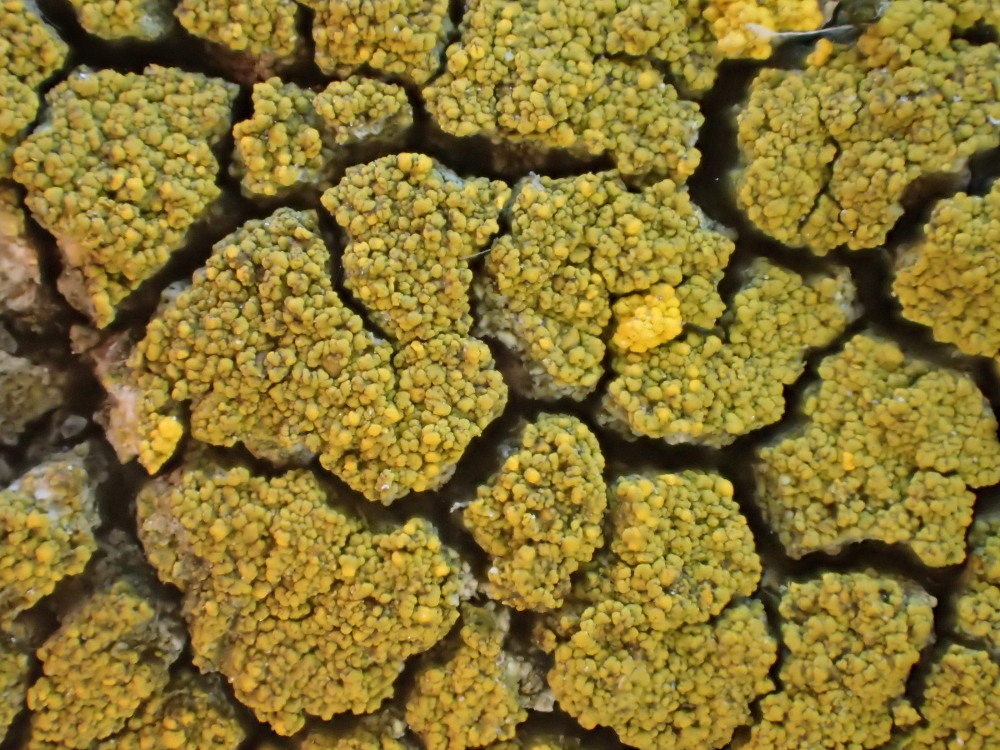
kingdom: Fungi
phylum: Ascomycota
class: Candelariomycetes
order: Candelariales
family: Candelariaceae
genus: Candelariella
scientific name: Candelariella vitellina
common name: almindelig æggeblommelav
